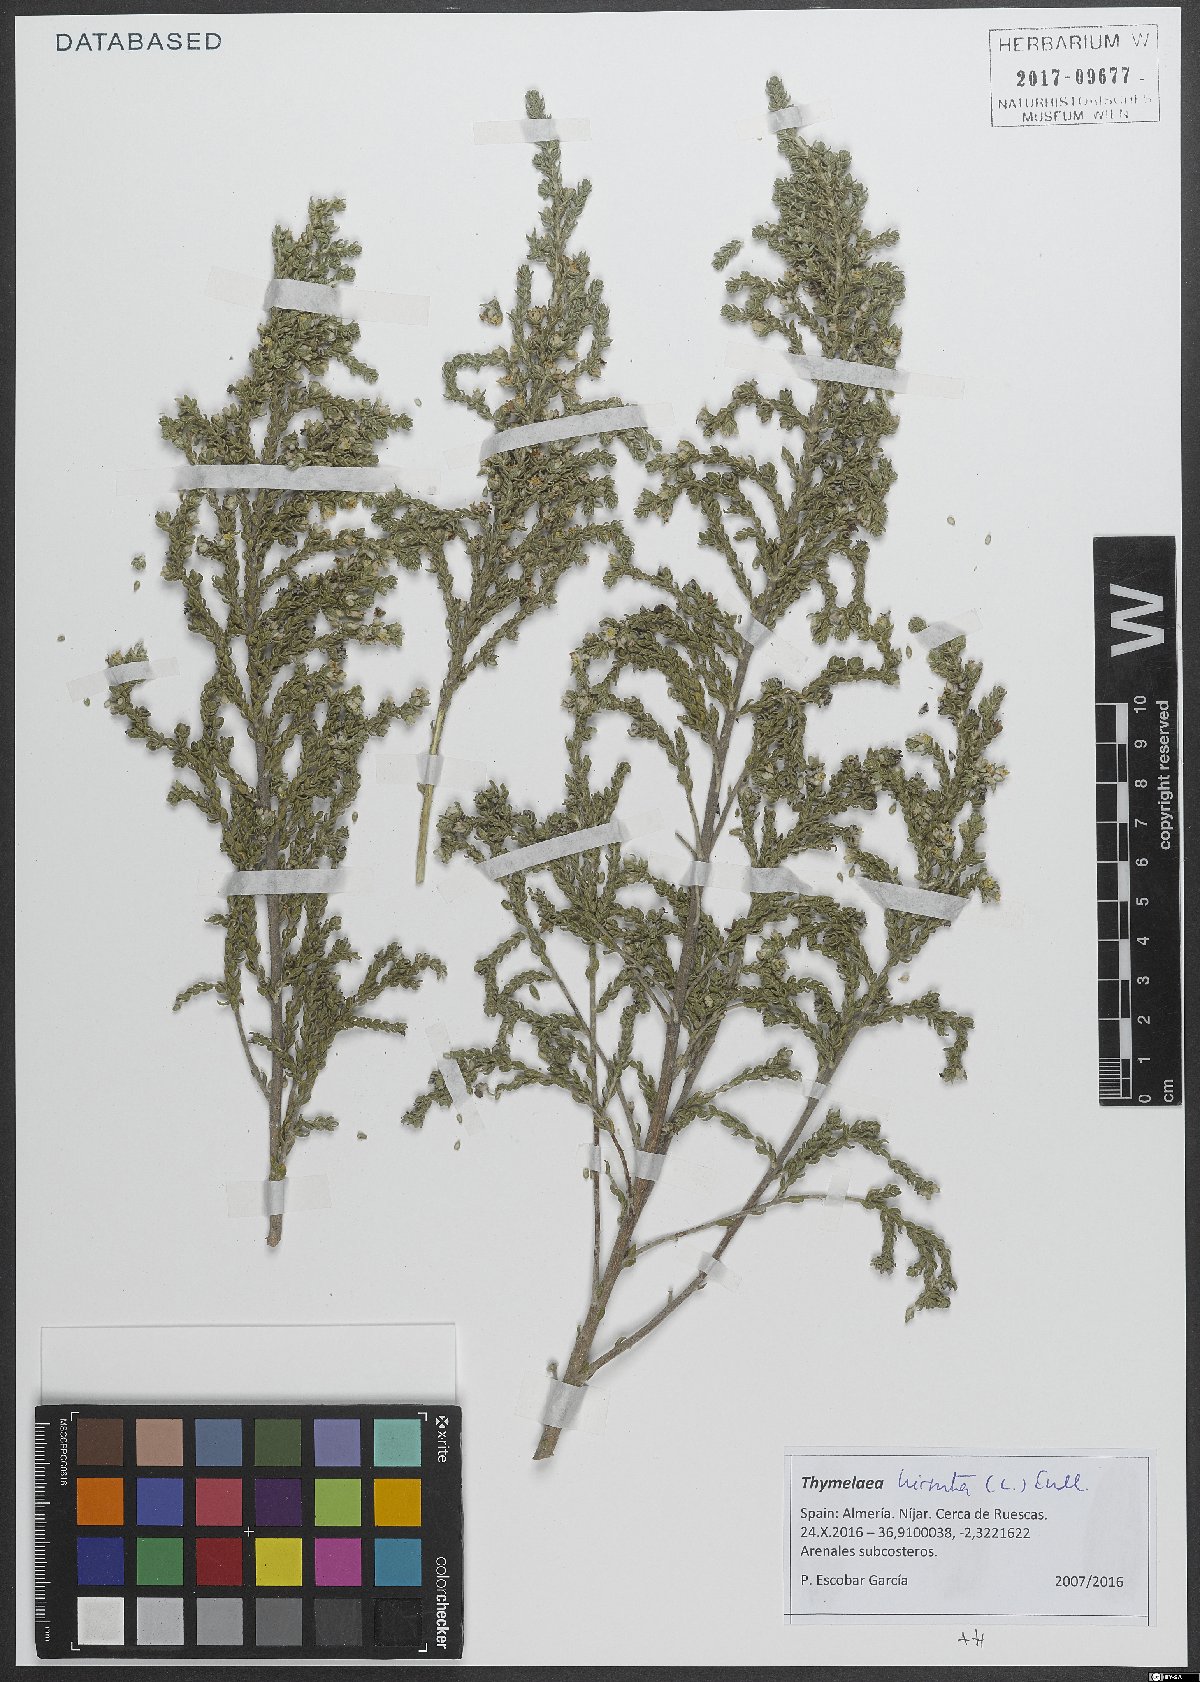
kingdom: Plantae
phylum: Tracheophyta
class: Magnoliopsida
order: Malvales
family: Thymelaeaceae
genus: Thymelaea
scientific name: Thymelaea hirsuta
